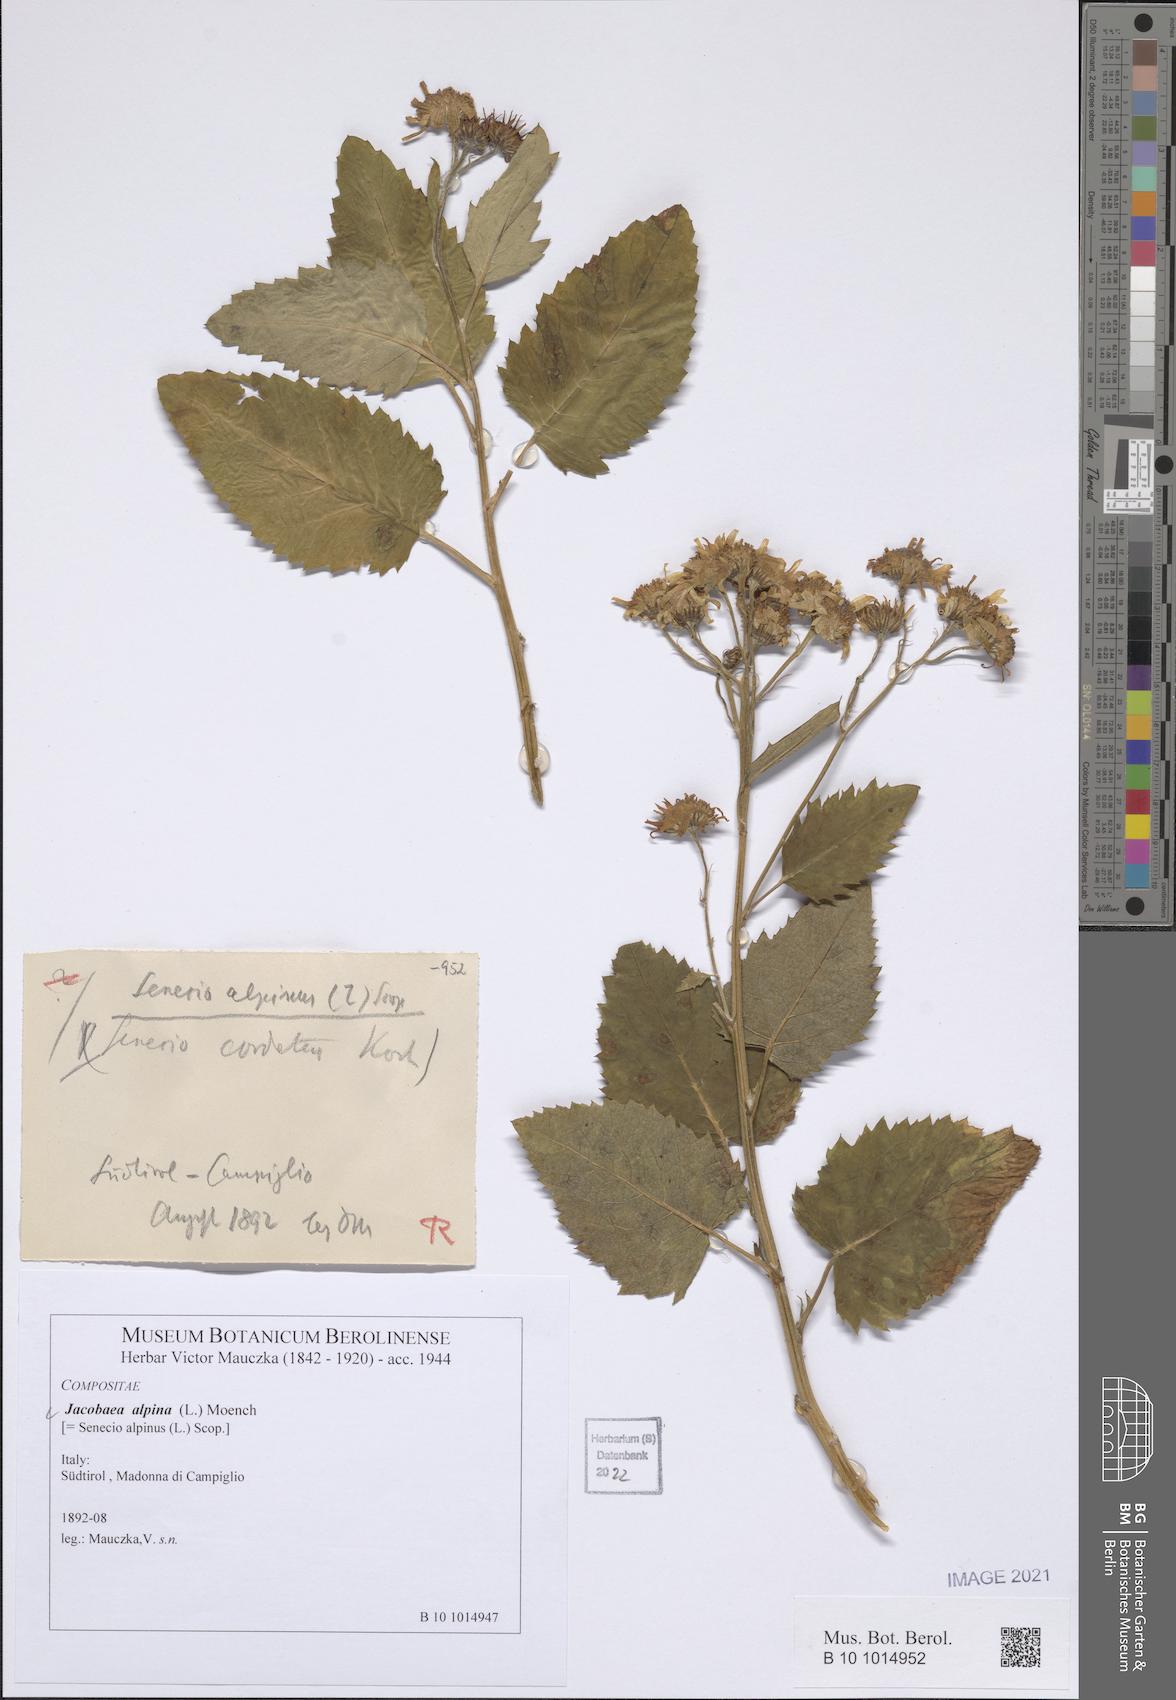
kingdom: Plantae
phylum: Tracheophyta
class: Magnoliopsida
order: Asterales
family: Asteraceae
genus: Jacobaea
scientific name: Jacobaea alpina
